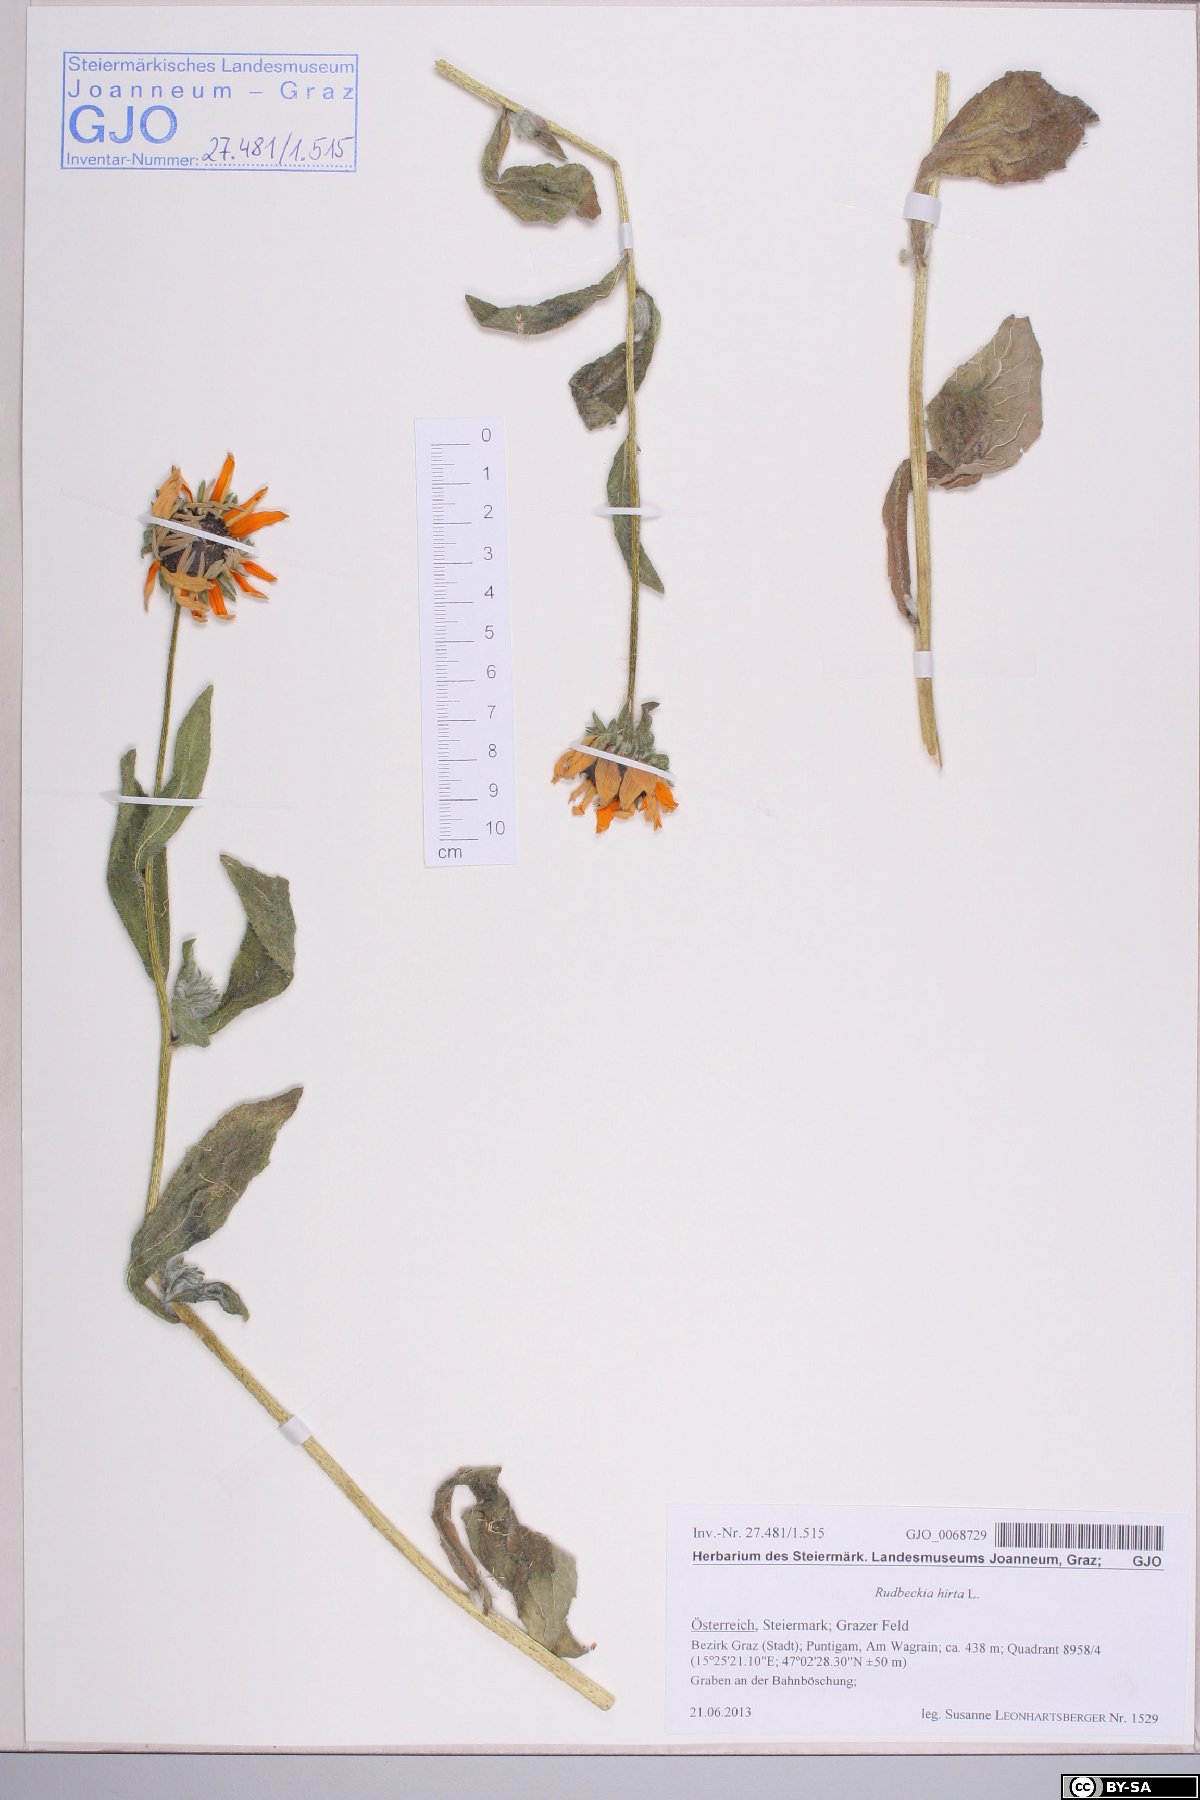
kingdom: Plantae
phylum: Tracheophyta
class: Magnoliopsida
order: Asterales
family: Asteraceae
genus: Rudbeckia
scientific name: Rudbeckia hirta
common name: Black-eyed-susan
